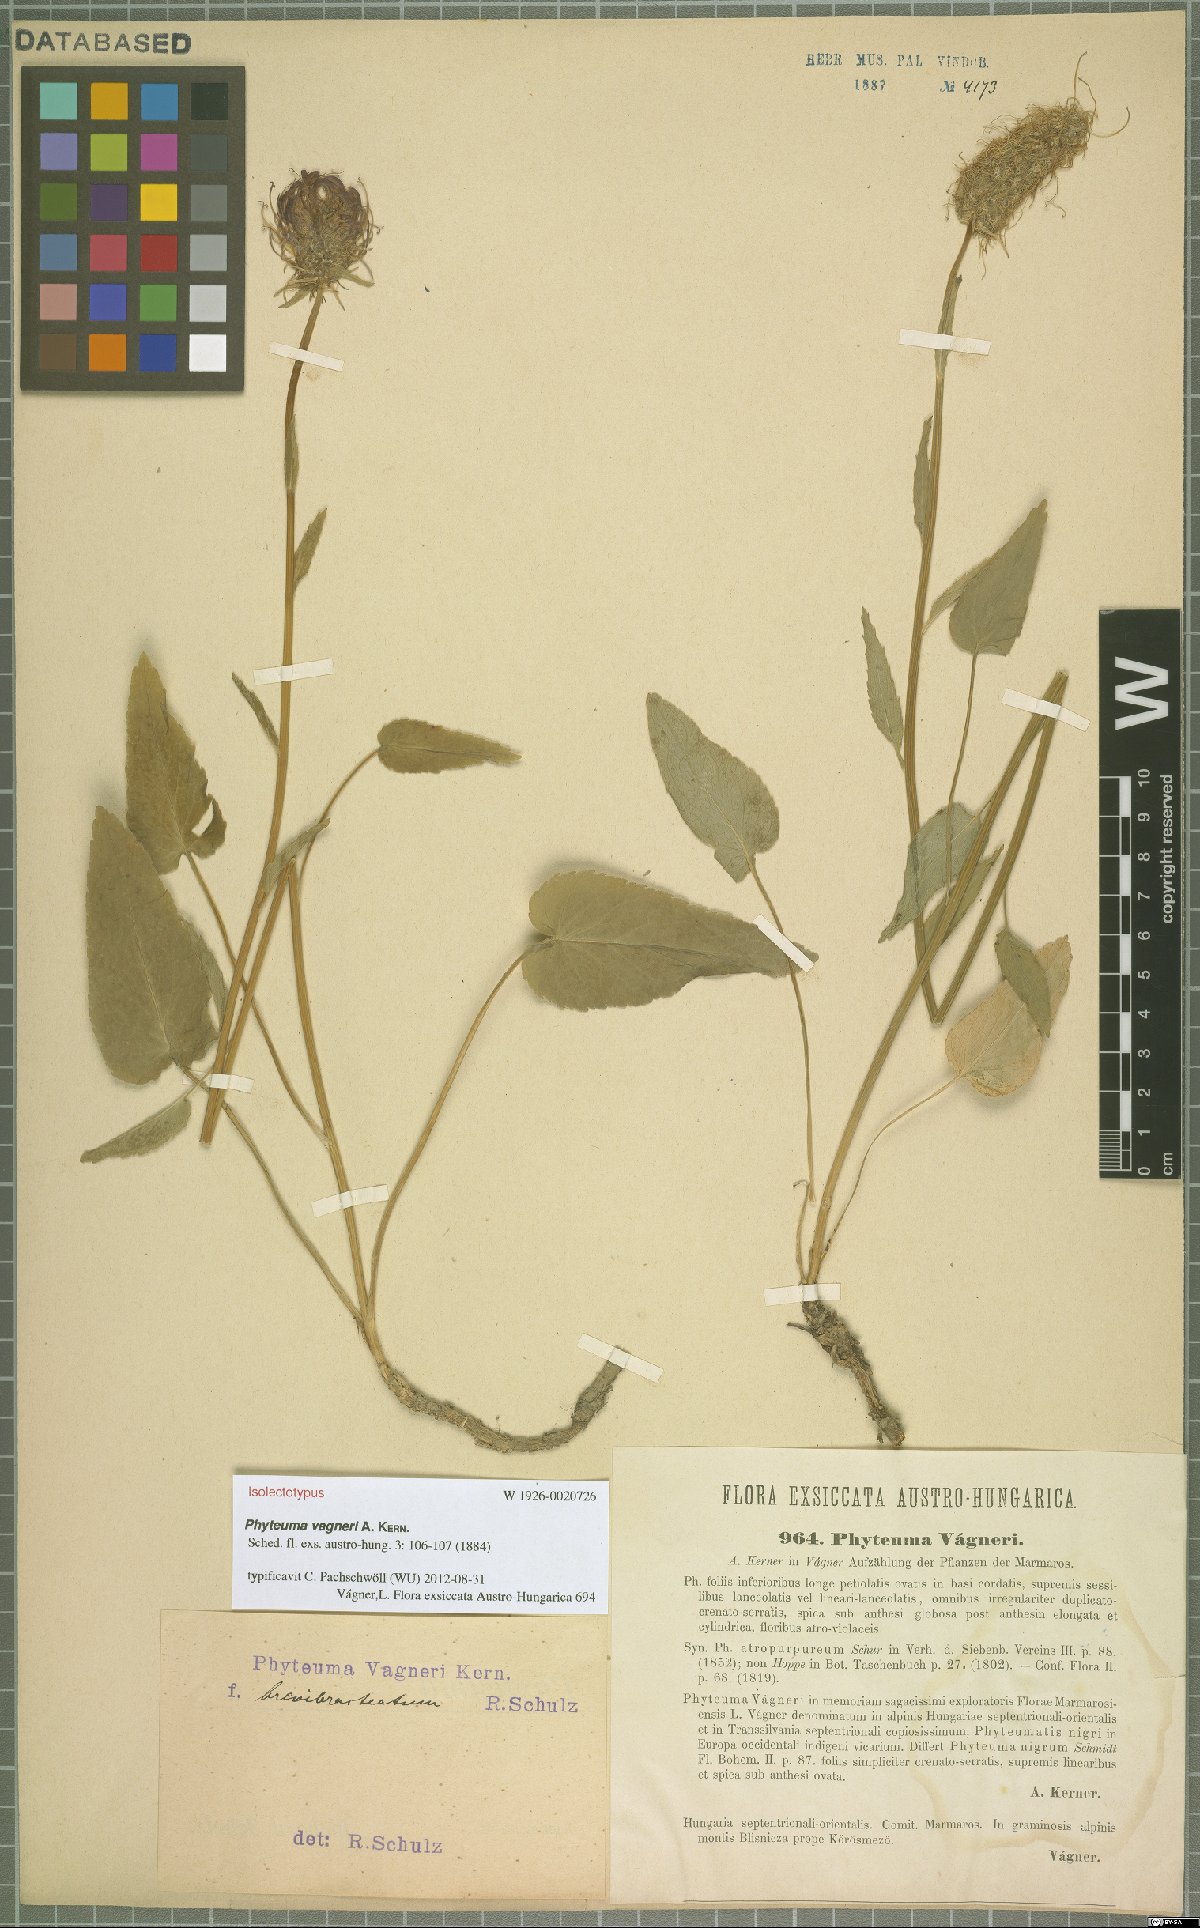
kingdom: Plantae
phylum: Tracheophyta
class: Magnoliopsida
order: Asterales
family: Campanulaceae
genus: Phyteuma
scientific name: Phyteuma vagneri
